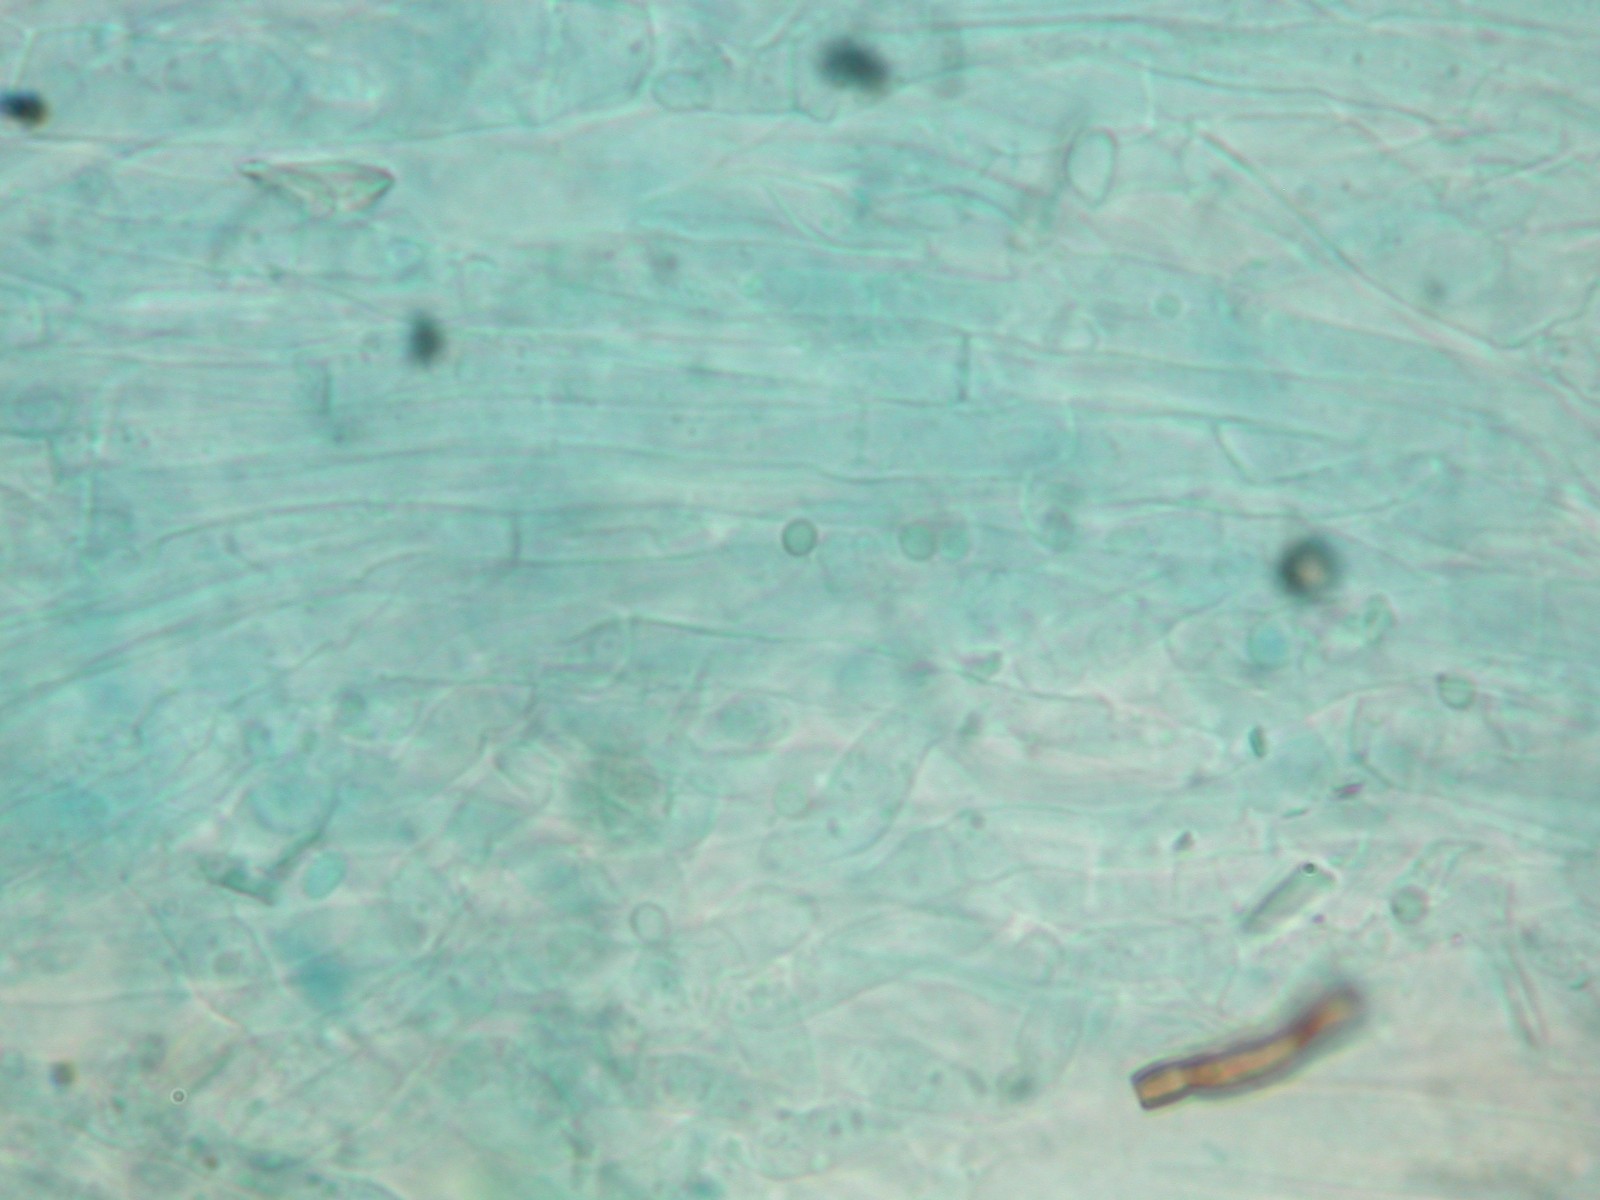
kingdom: Fungi
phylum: Basidiomycota
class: Agaricomycetes
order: Agaricales
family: Clavariaceae
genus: Ramariopsis
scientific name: Ramariopsis
